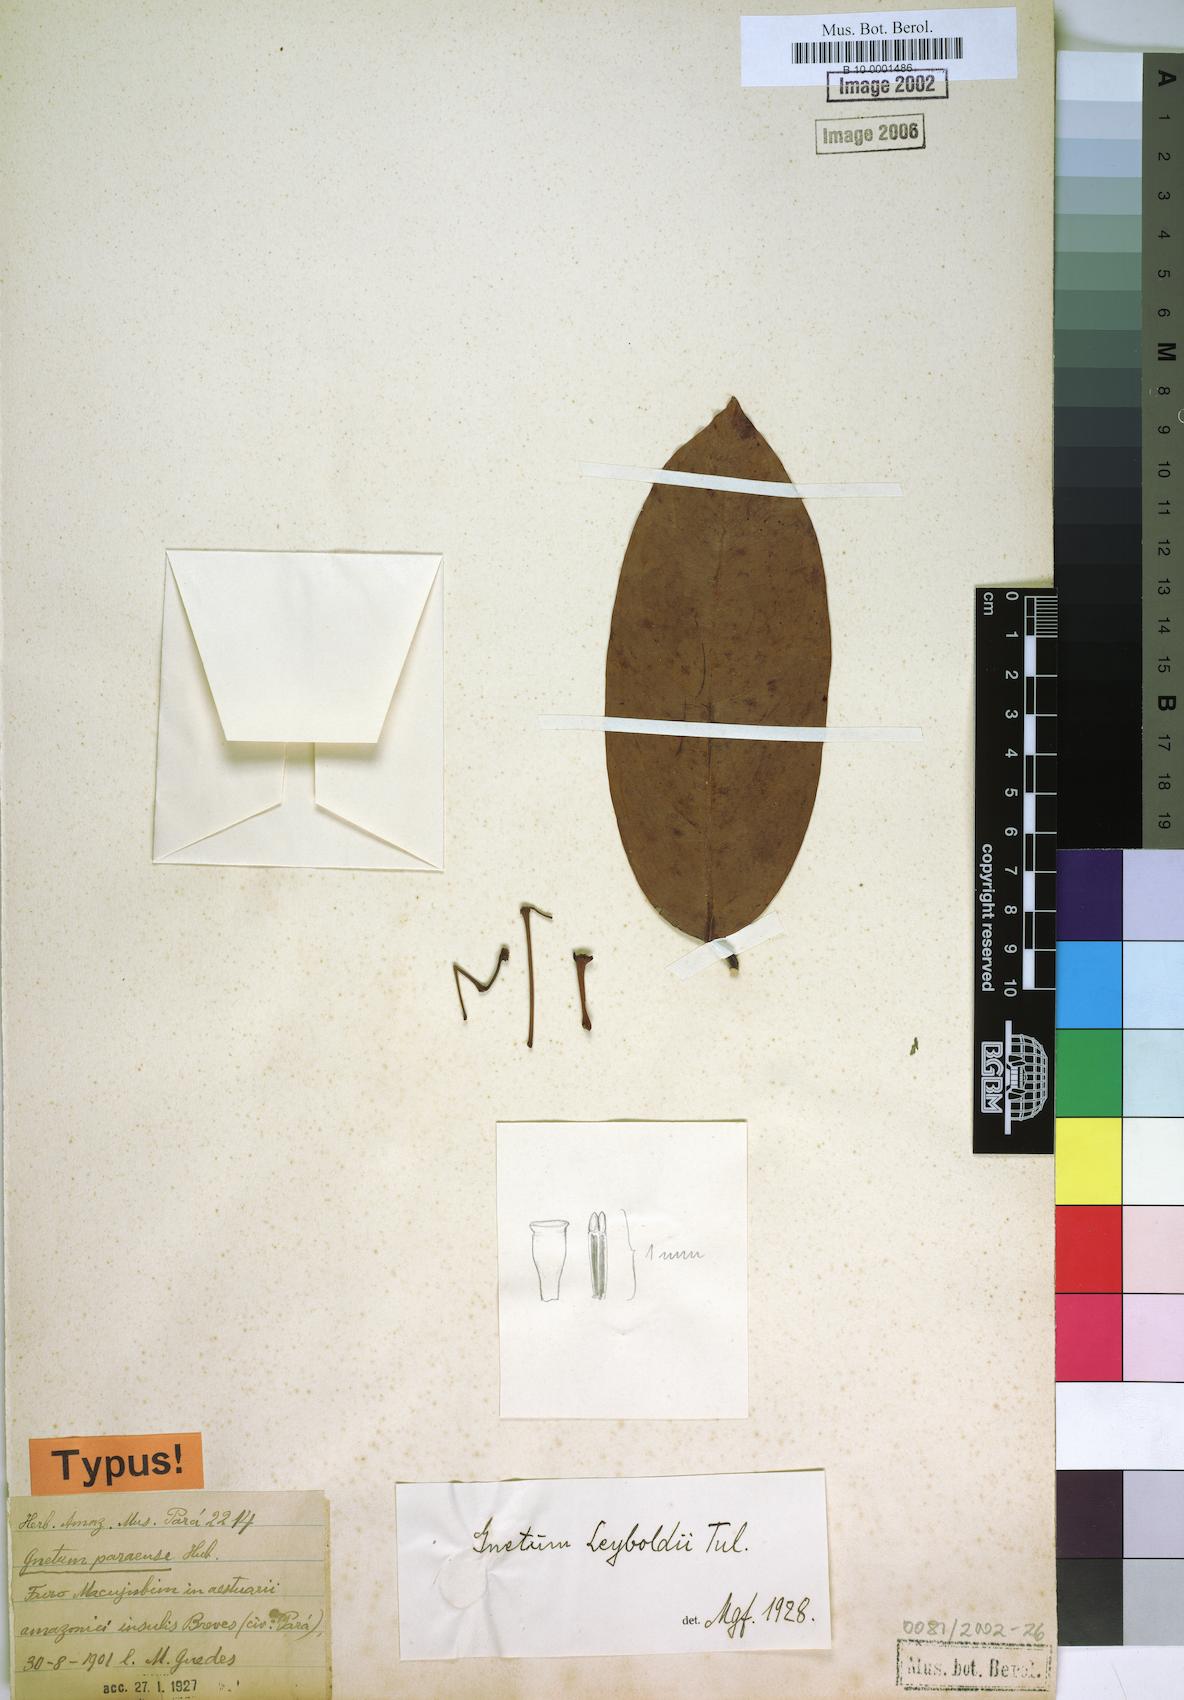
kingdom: Plantae
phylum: Tracheophyta
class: Gnetopsida
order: Gnetales
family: Gnetaceae
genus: Gnetum
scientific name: Gnetum leyboldii
